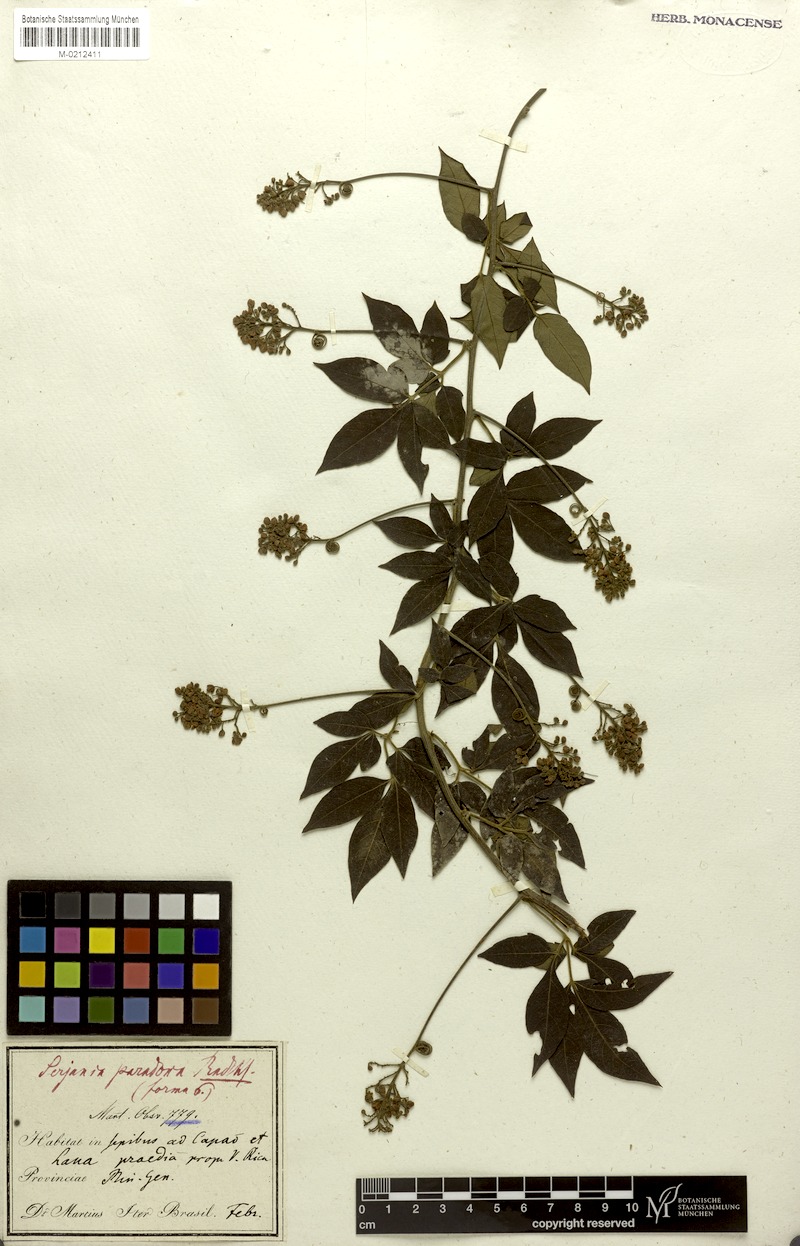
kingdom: Plantae
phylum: Tracheophyta
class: Magnoliopsida
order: Sapindales
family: Sapindaceae
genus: Serjania
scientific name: Serjania paradoxa
